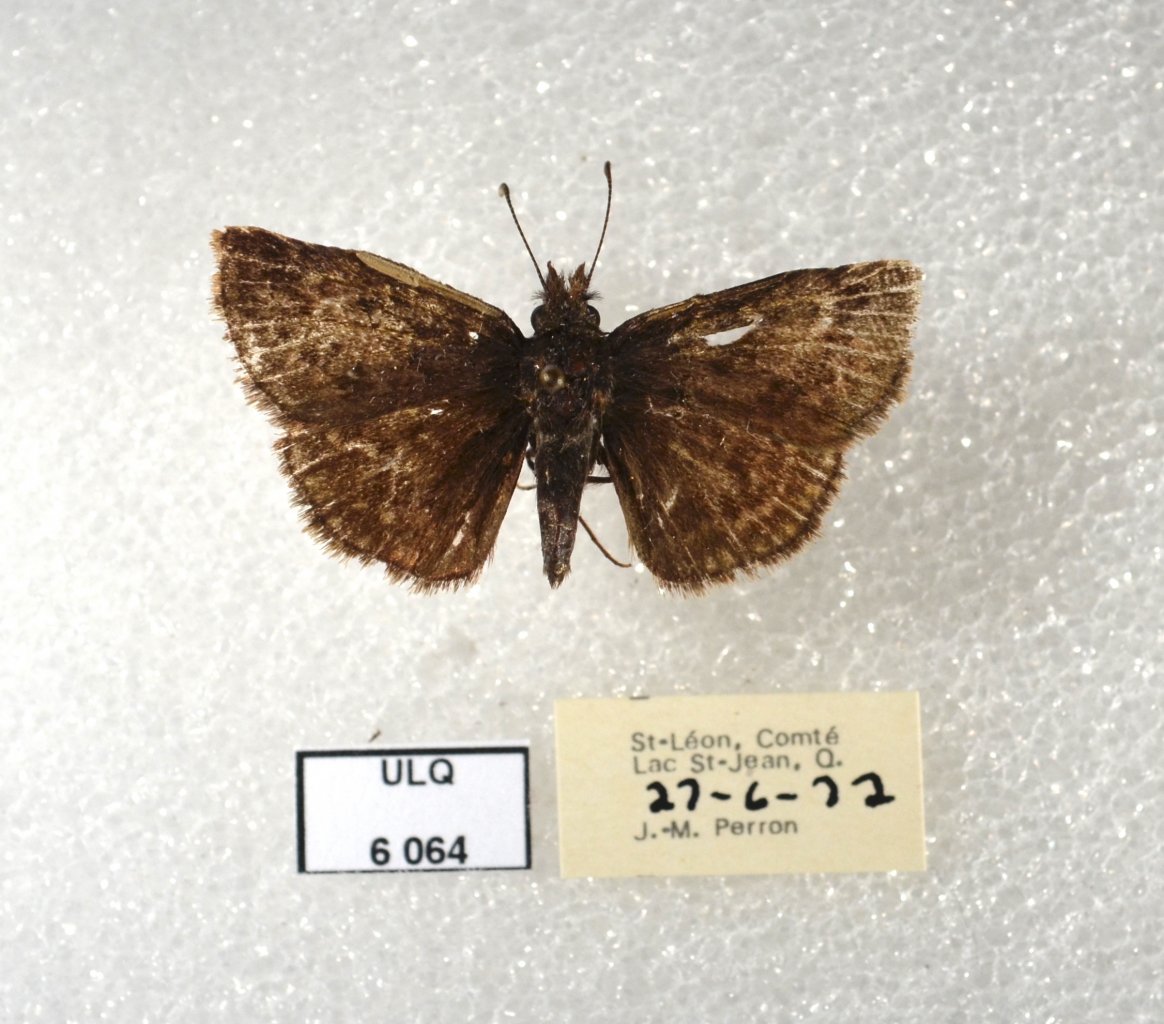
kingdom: Animalia
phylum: Arthropoda
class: Insecta
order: Lepidoptera
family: Hesperiidae
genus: Erynnis
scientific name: Erynnis icelus
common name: Dreamy Duskywing
